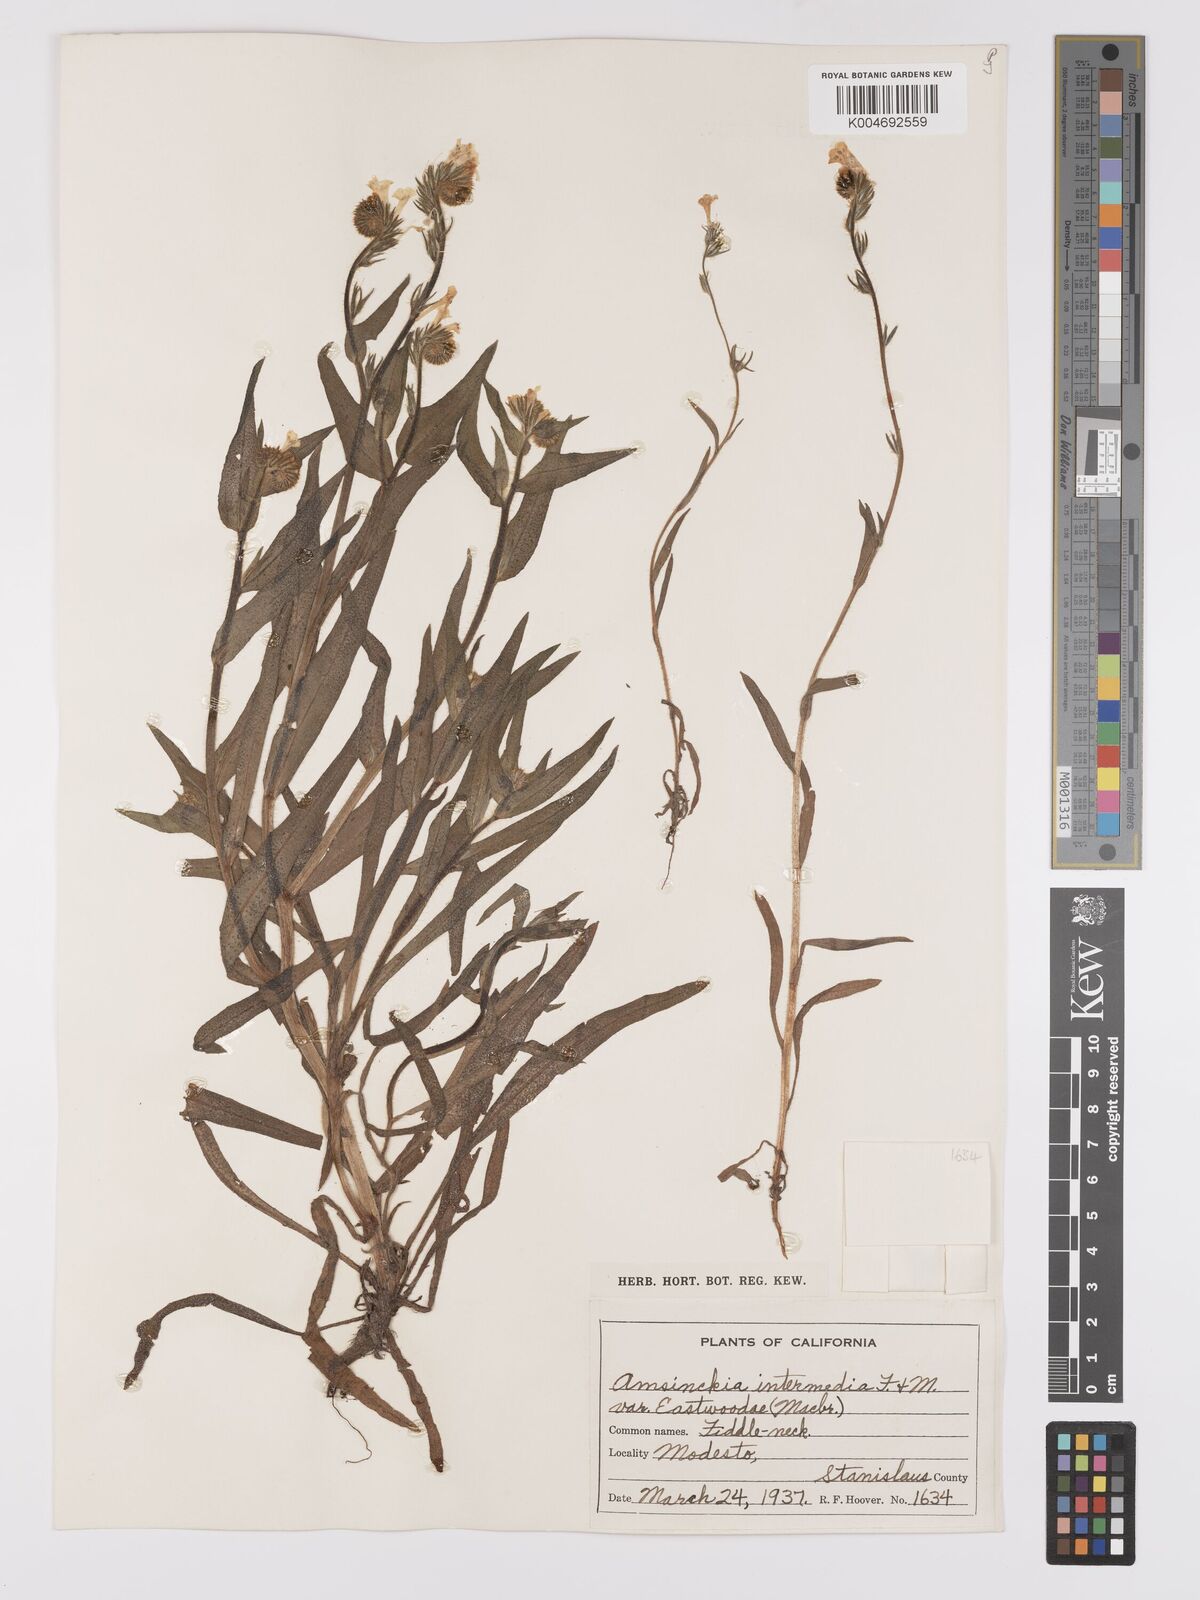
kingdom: Plantae
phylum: Tracheophyta
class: Magnoliopsida
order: Boraginales
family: Boraginaceae
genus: Amsinckia
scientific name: Amsinckia eastwoodiae
